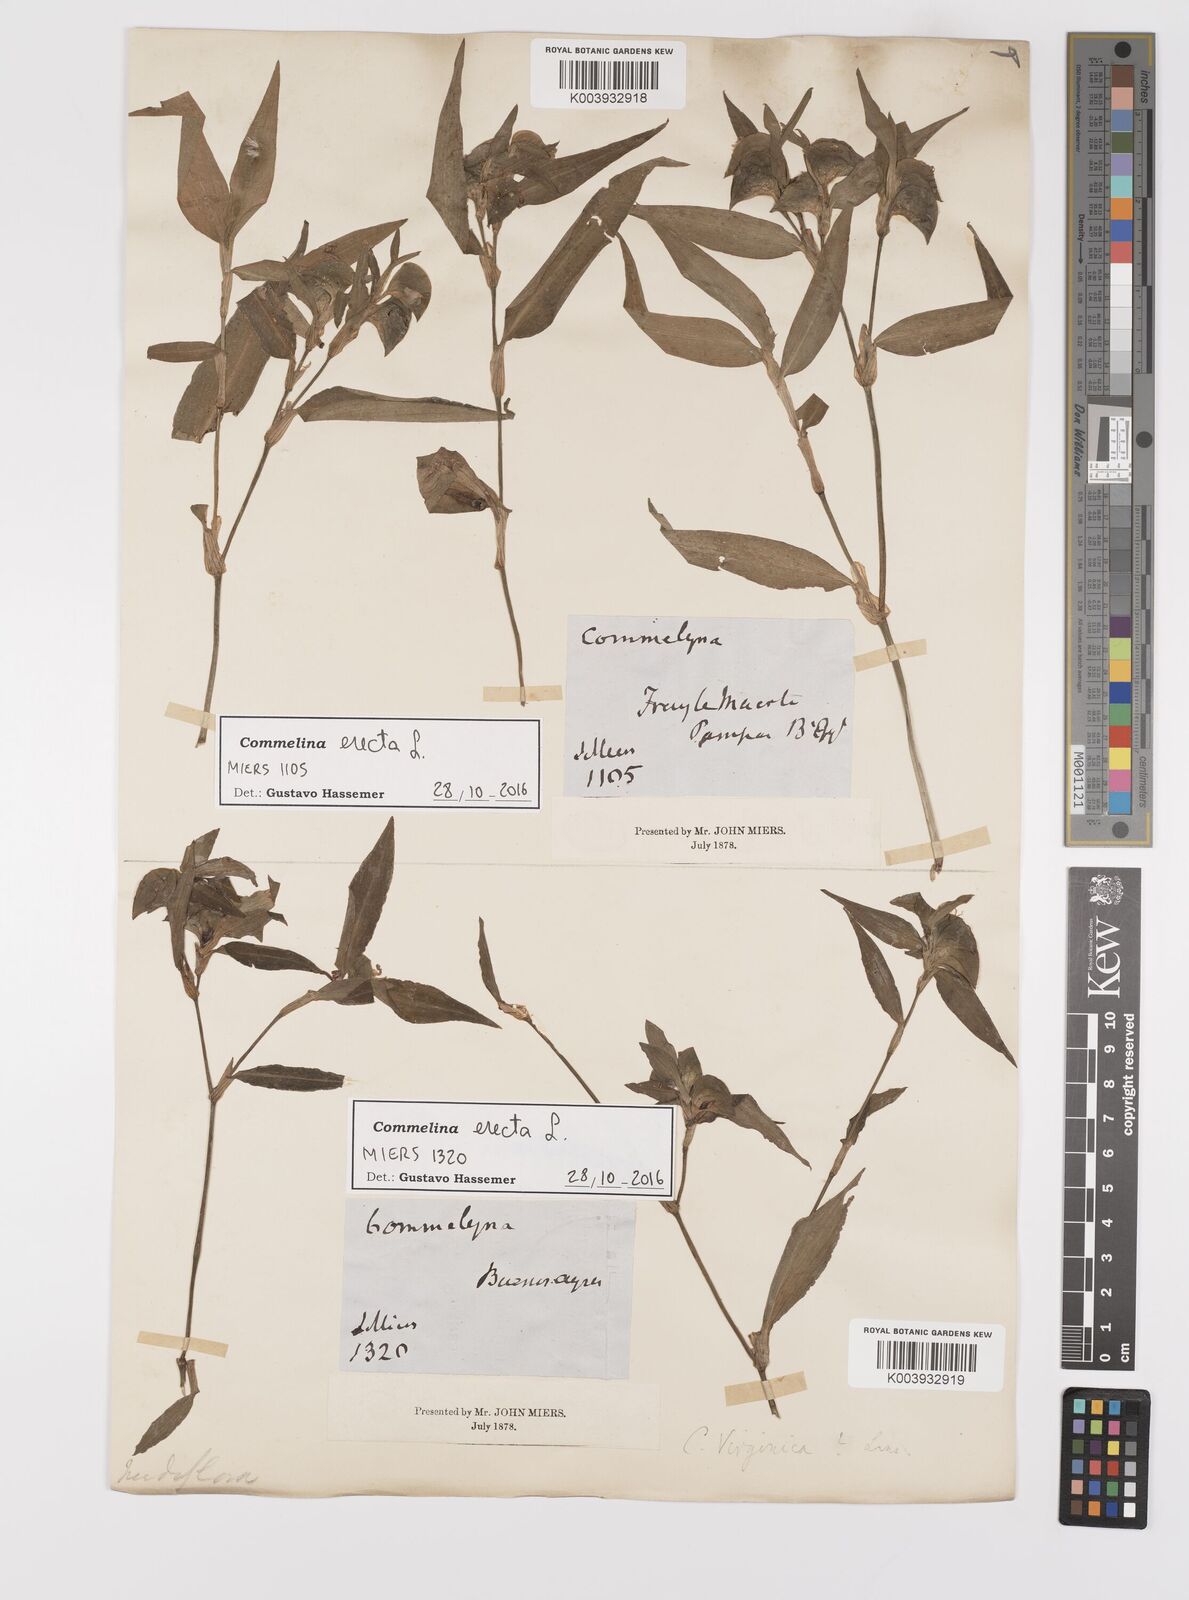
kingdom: Plantae
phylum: Tracheophyta
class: Liliopsida
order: Commelinales
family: Commelinaceae
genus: Commelina
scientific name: Commelina erecta
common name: Blousel blommetjie
